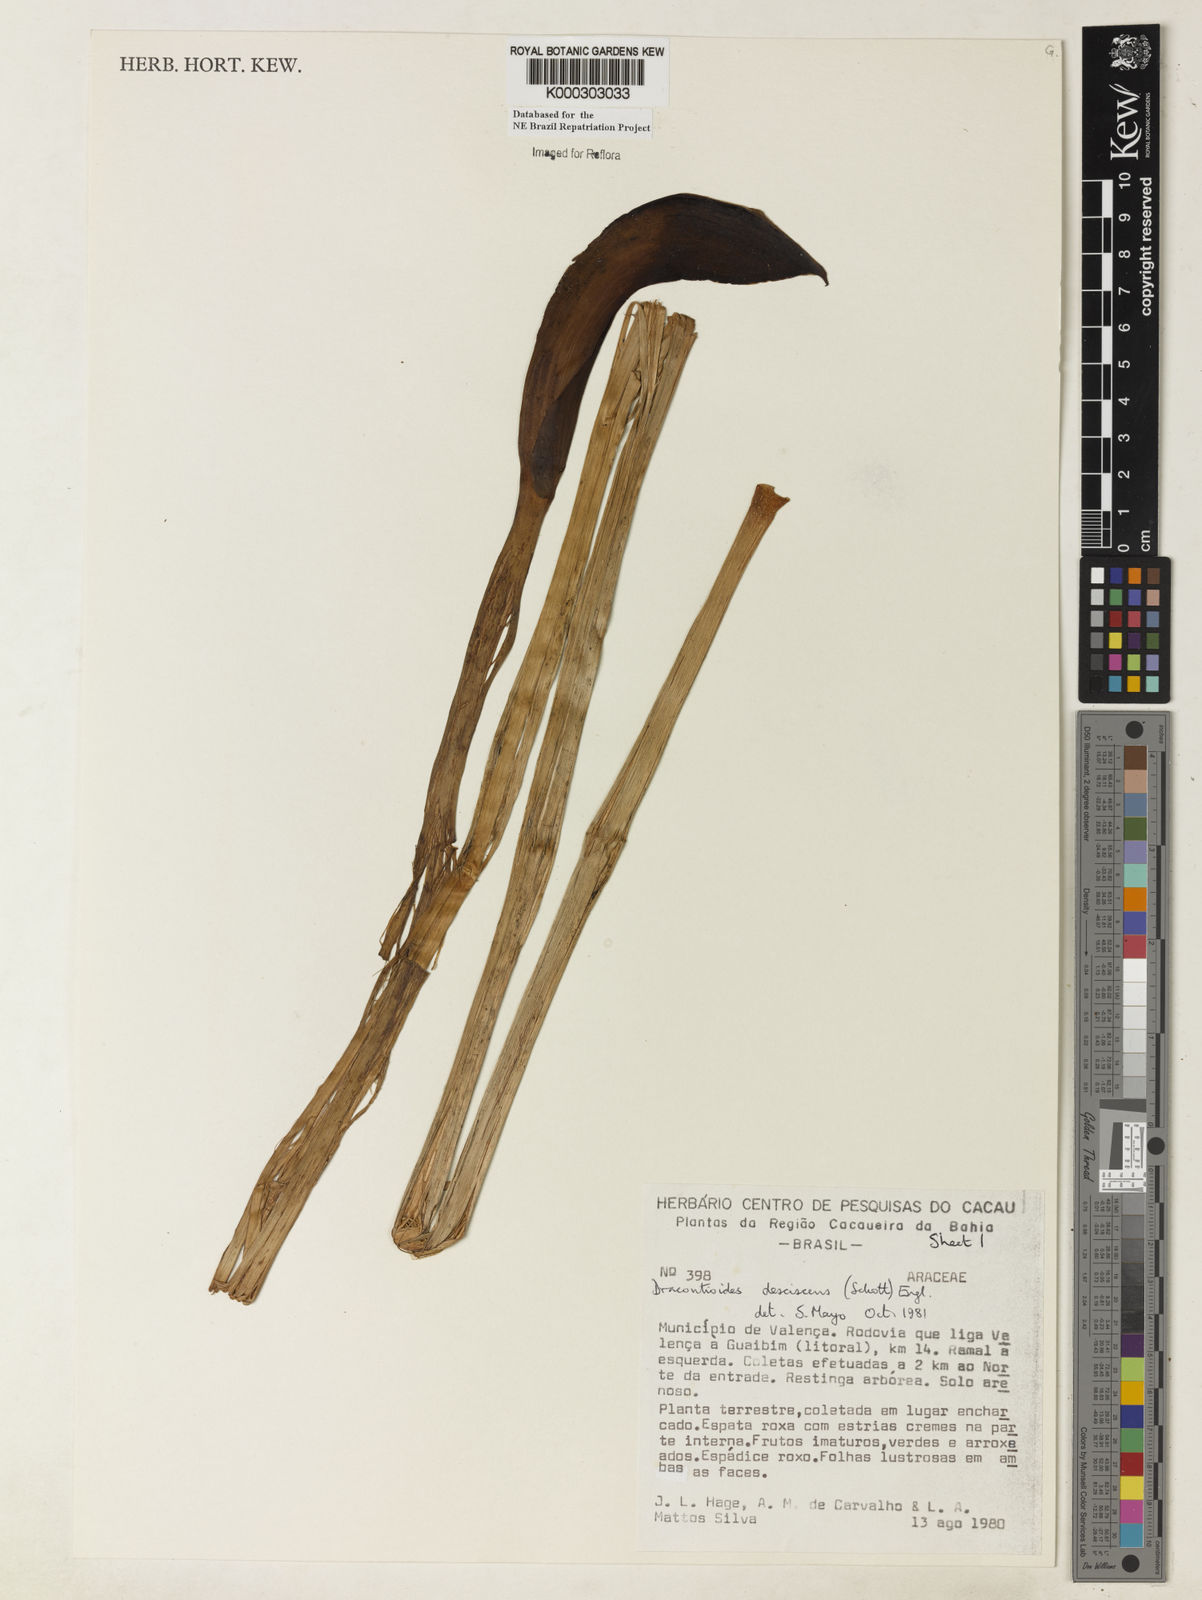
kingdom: Plantae
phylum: Tracheophyta
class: Liliopsida
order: Alismatales
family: Araceae
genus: Dracontioides
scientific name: Dracontioides desciscens
